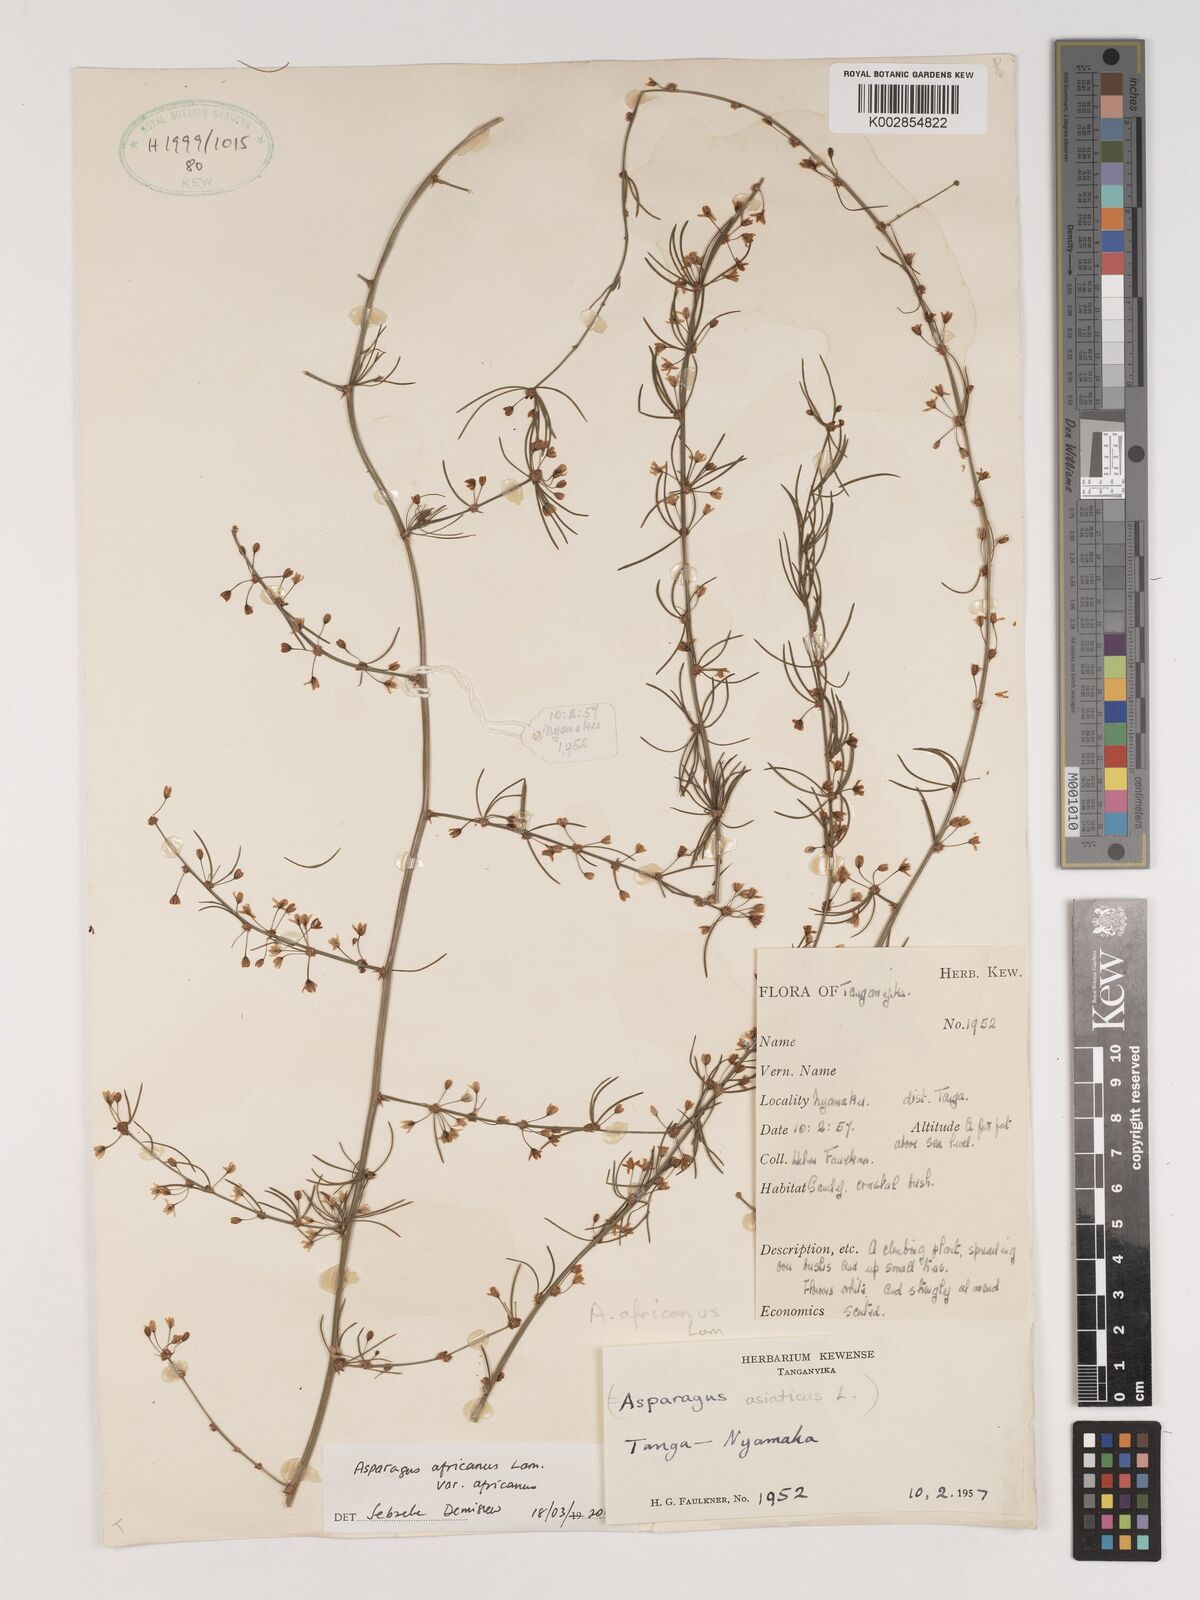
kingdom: Plantae
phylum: Tracheophyta
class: Liliopsida
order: Asparagales
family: Asparagaceae
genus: Asparagus
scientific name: Asparagus africanus
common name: Asparagus-fern
